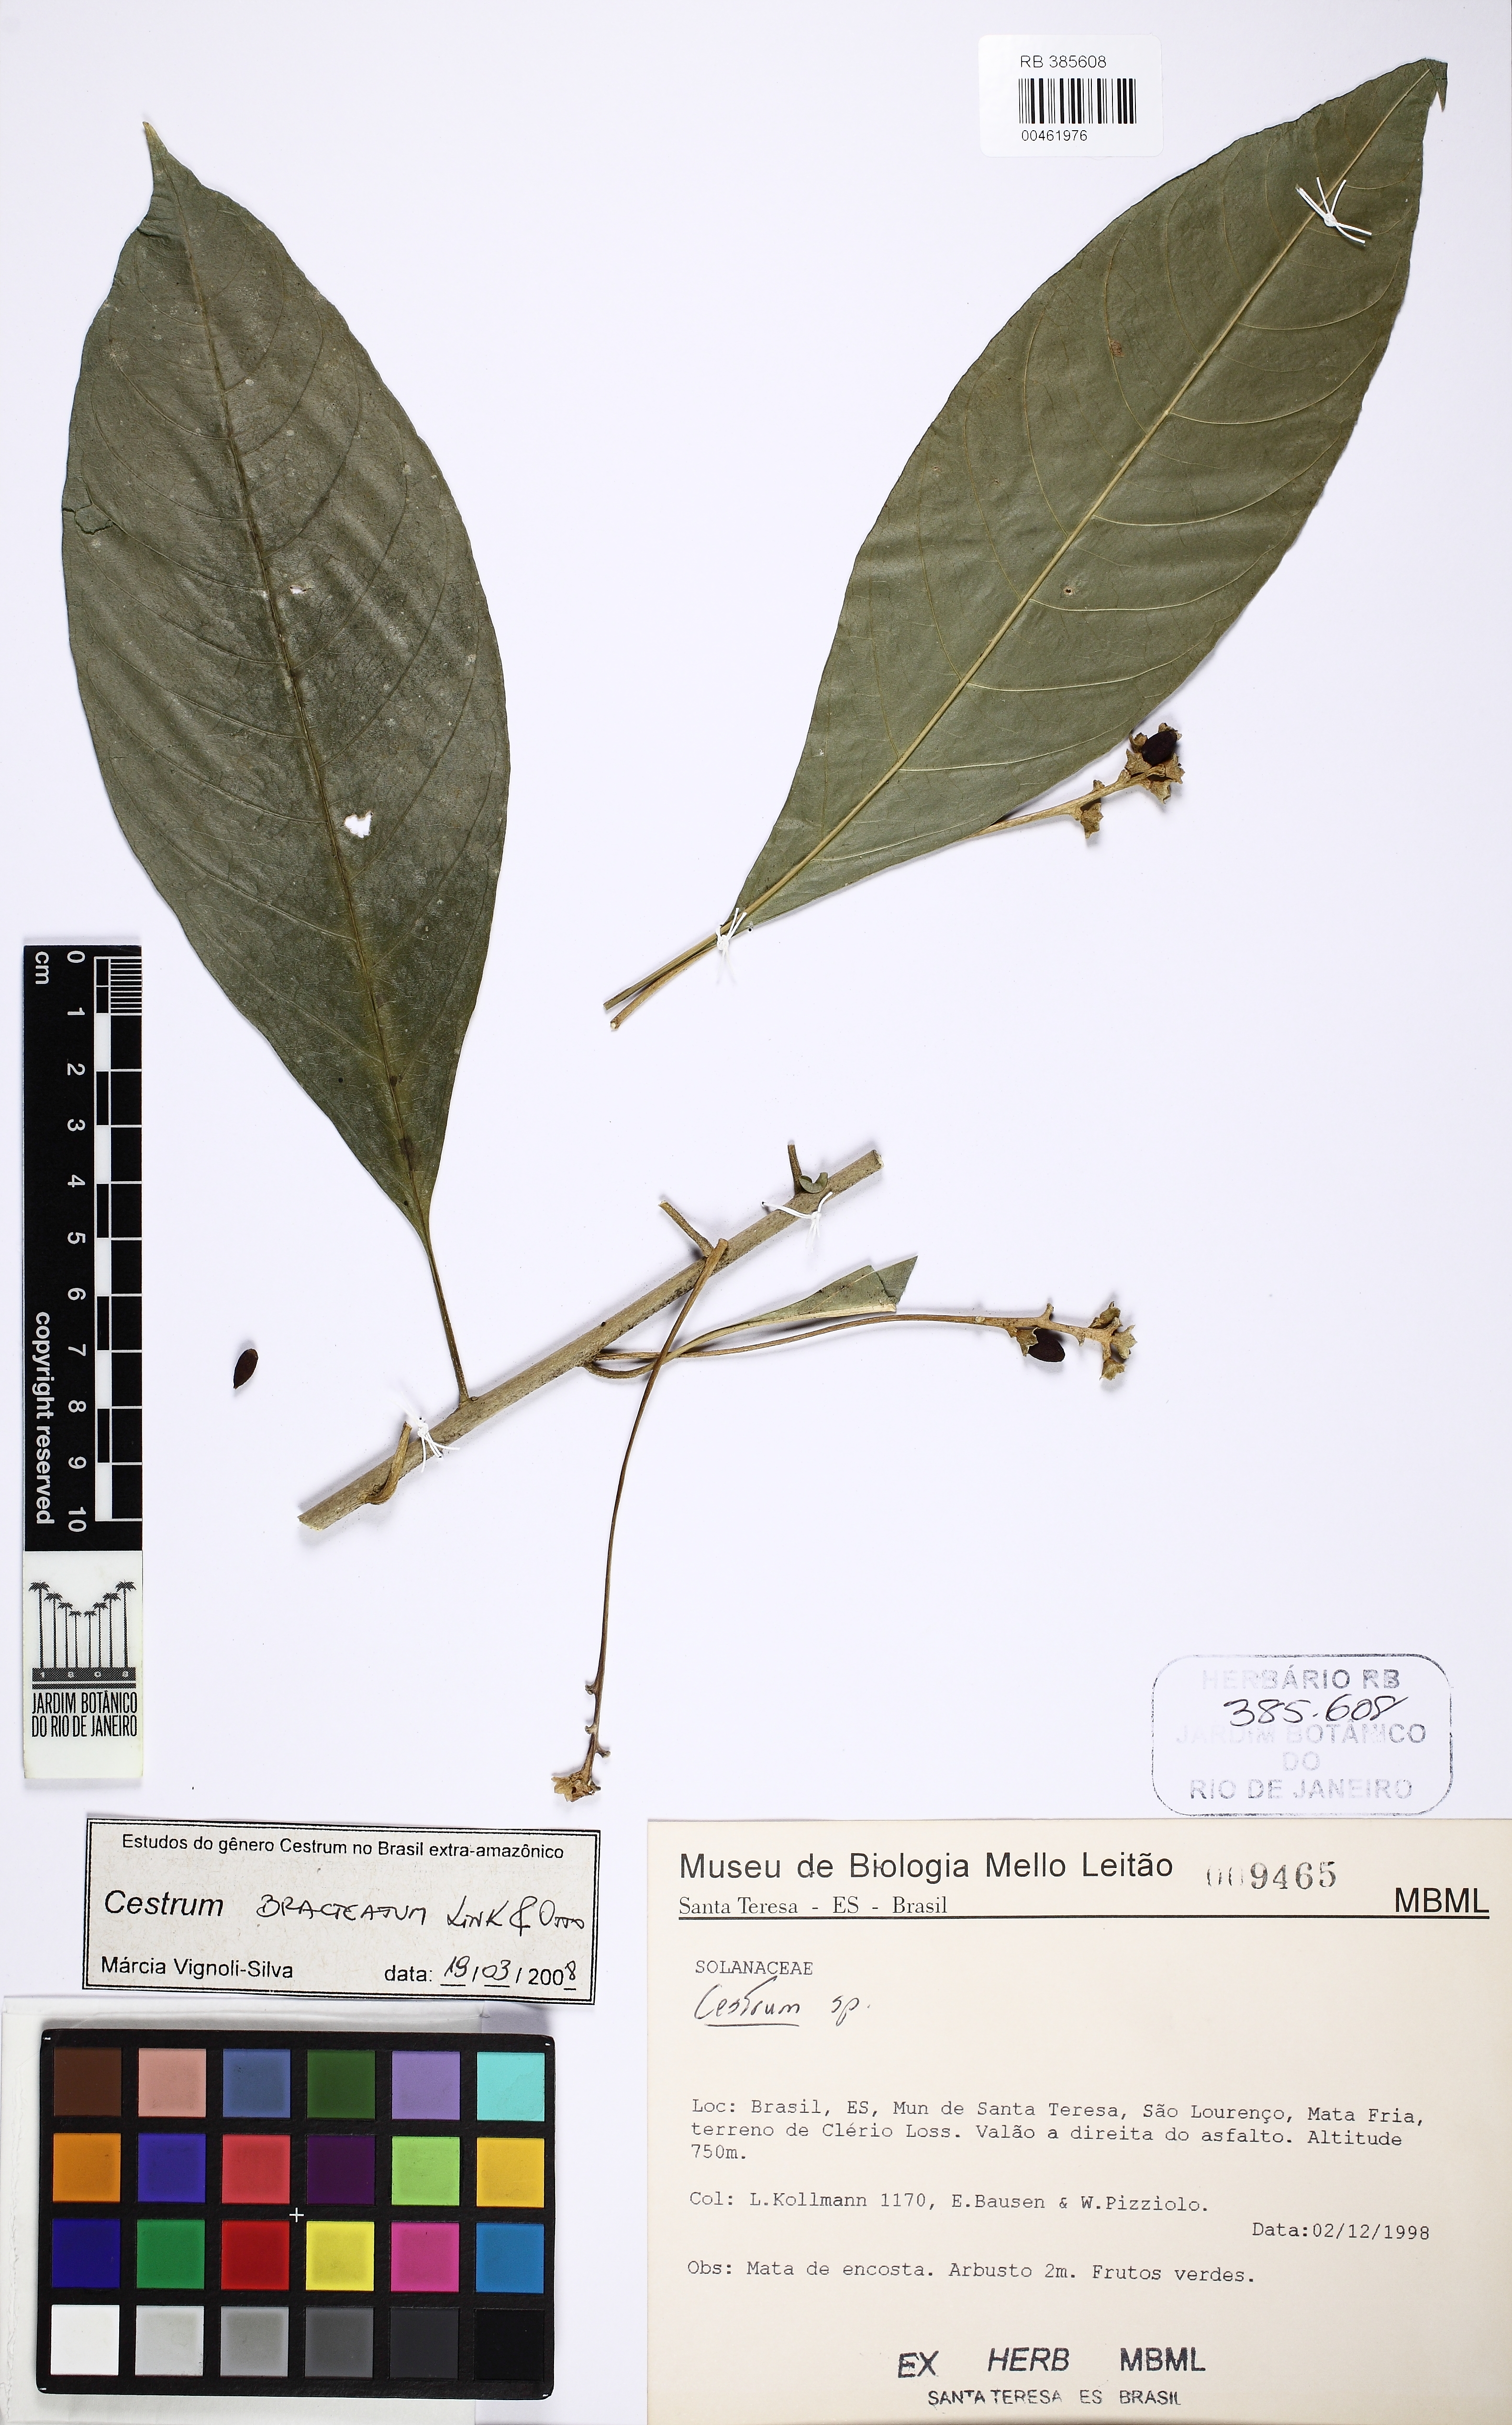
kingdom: Plantae
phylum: Tracheophyta
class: Magnoliopsida
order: Solanales
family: Solanaceae
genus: Cestrum
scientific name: Cestrum bracteatum
